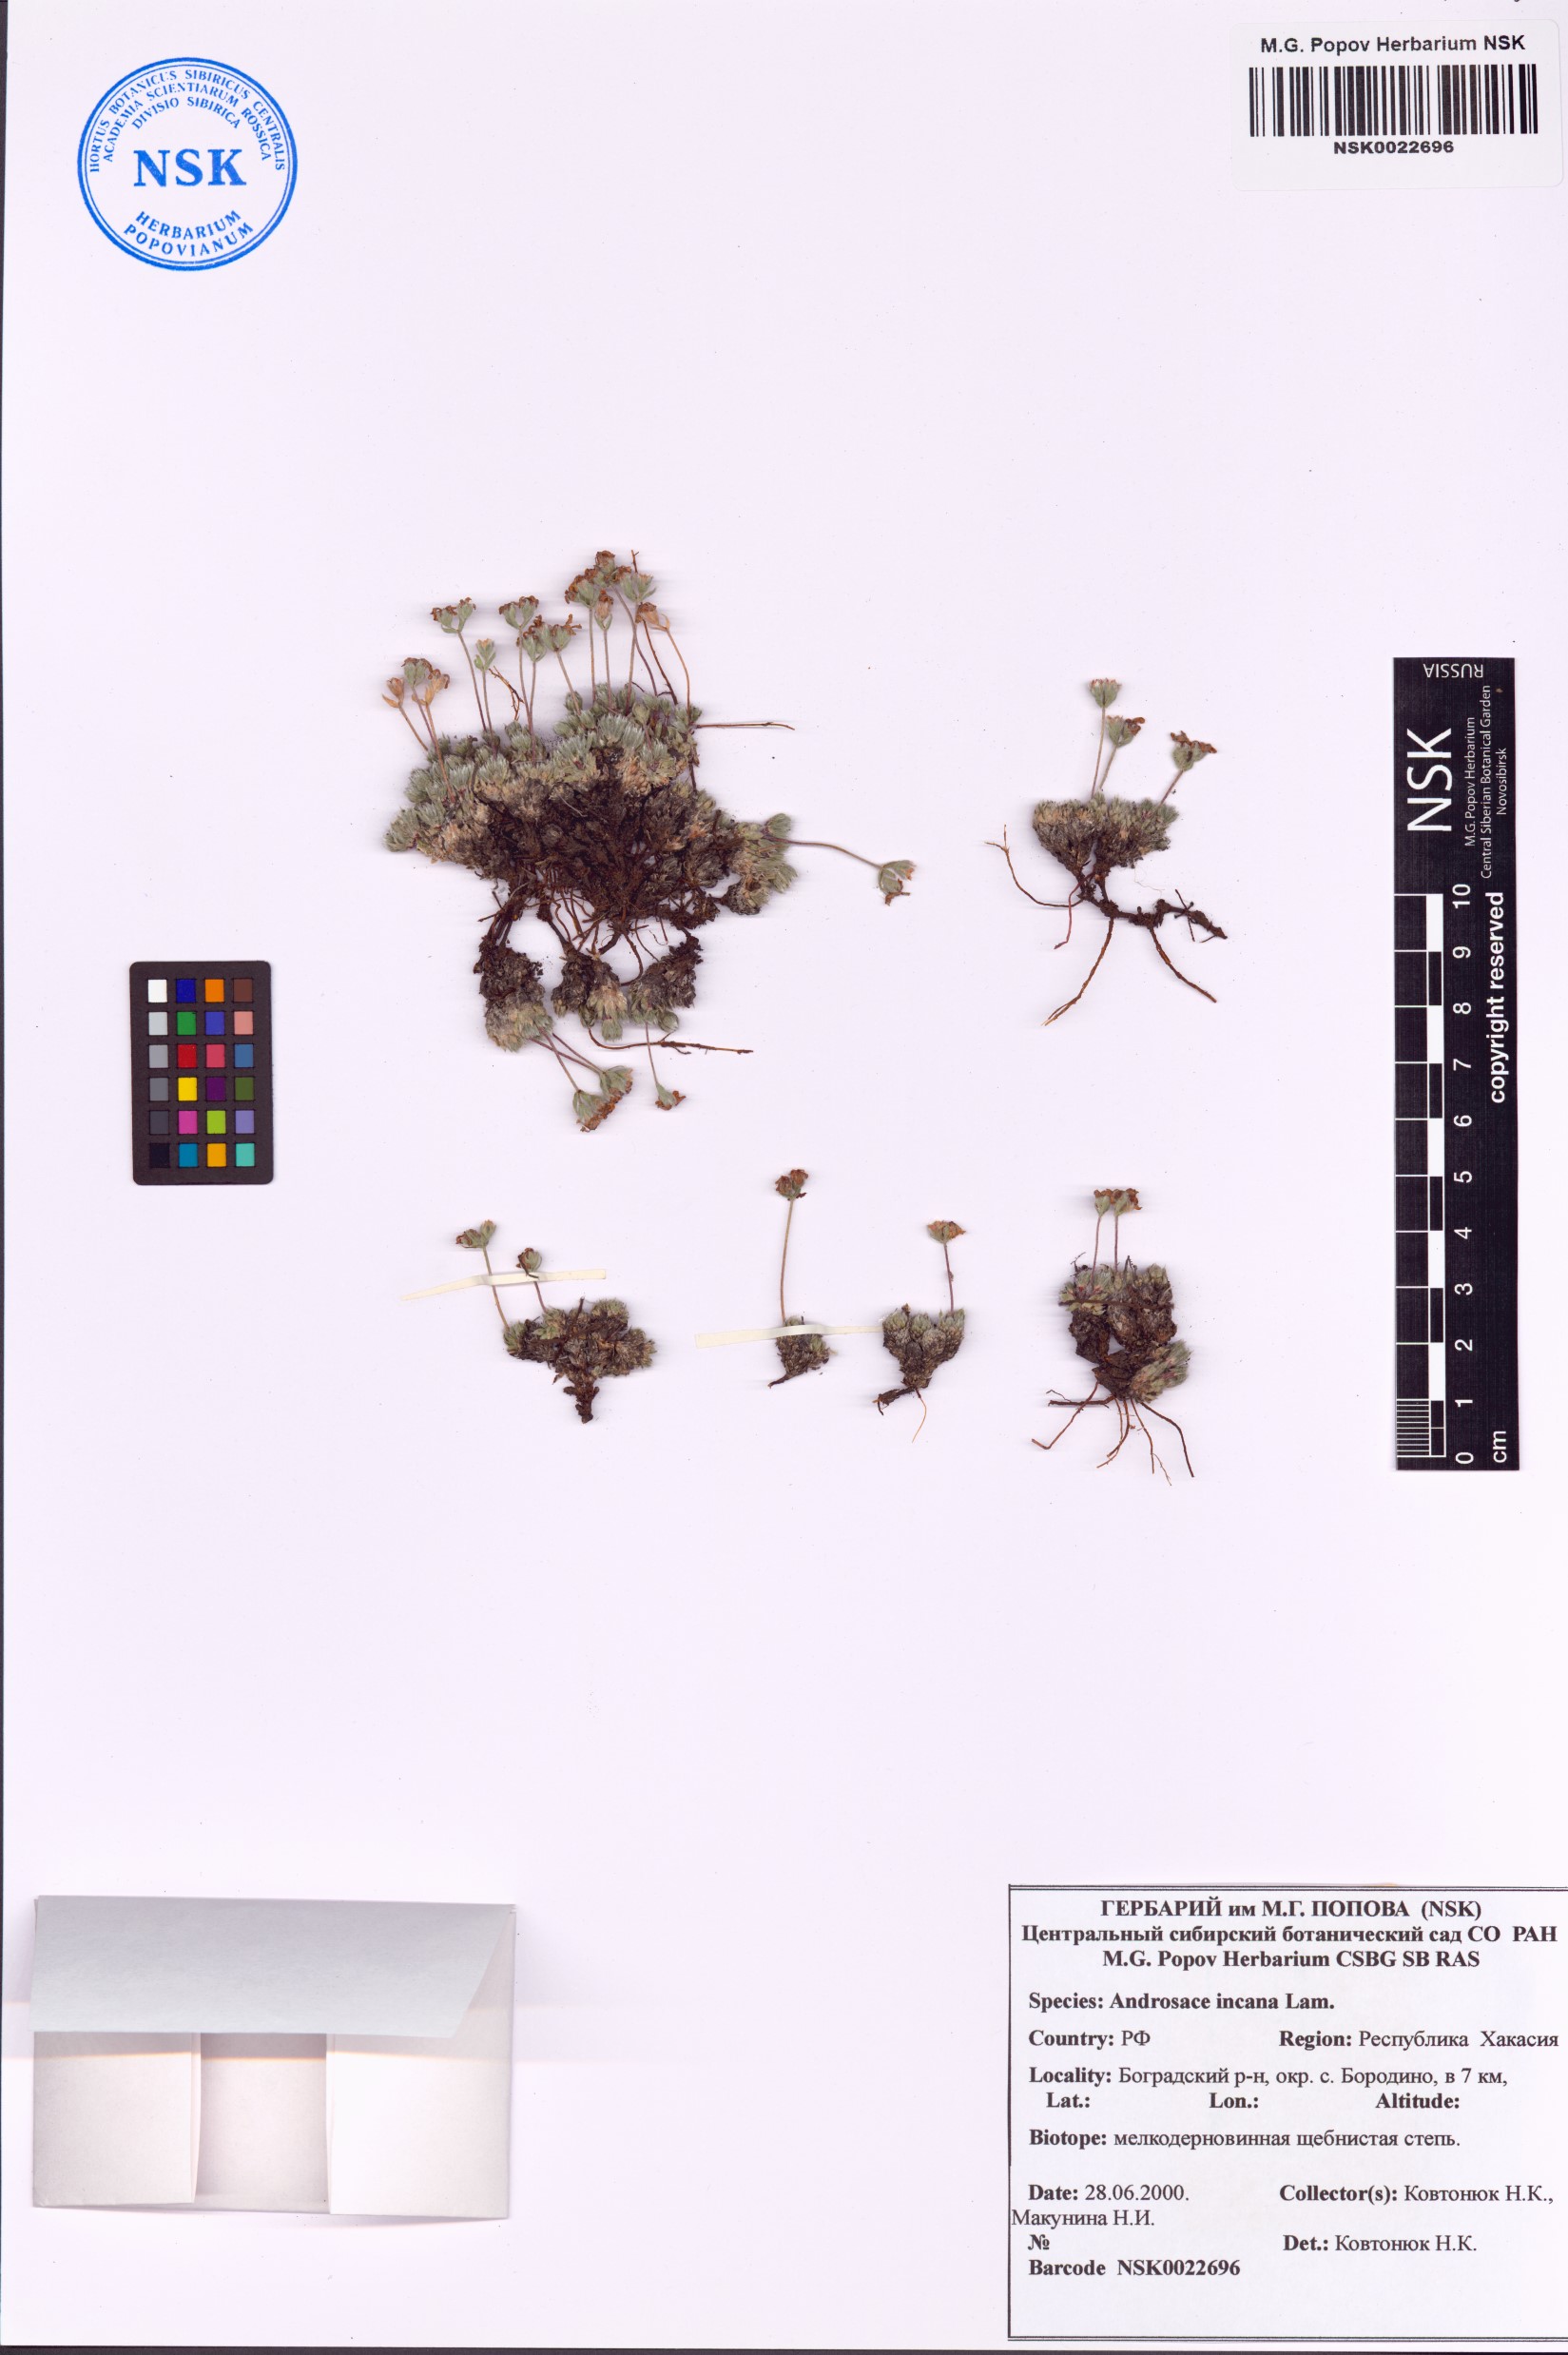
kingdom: Plantae
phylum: Tracheophyta
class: Magnoliopsida
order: Ericales
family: Primulaceae
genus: Androsace
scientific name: Androsace incana
